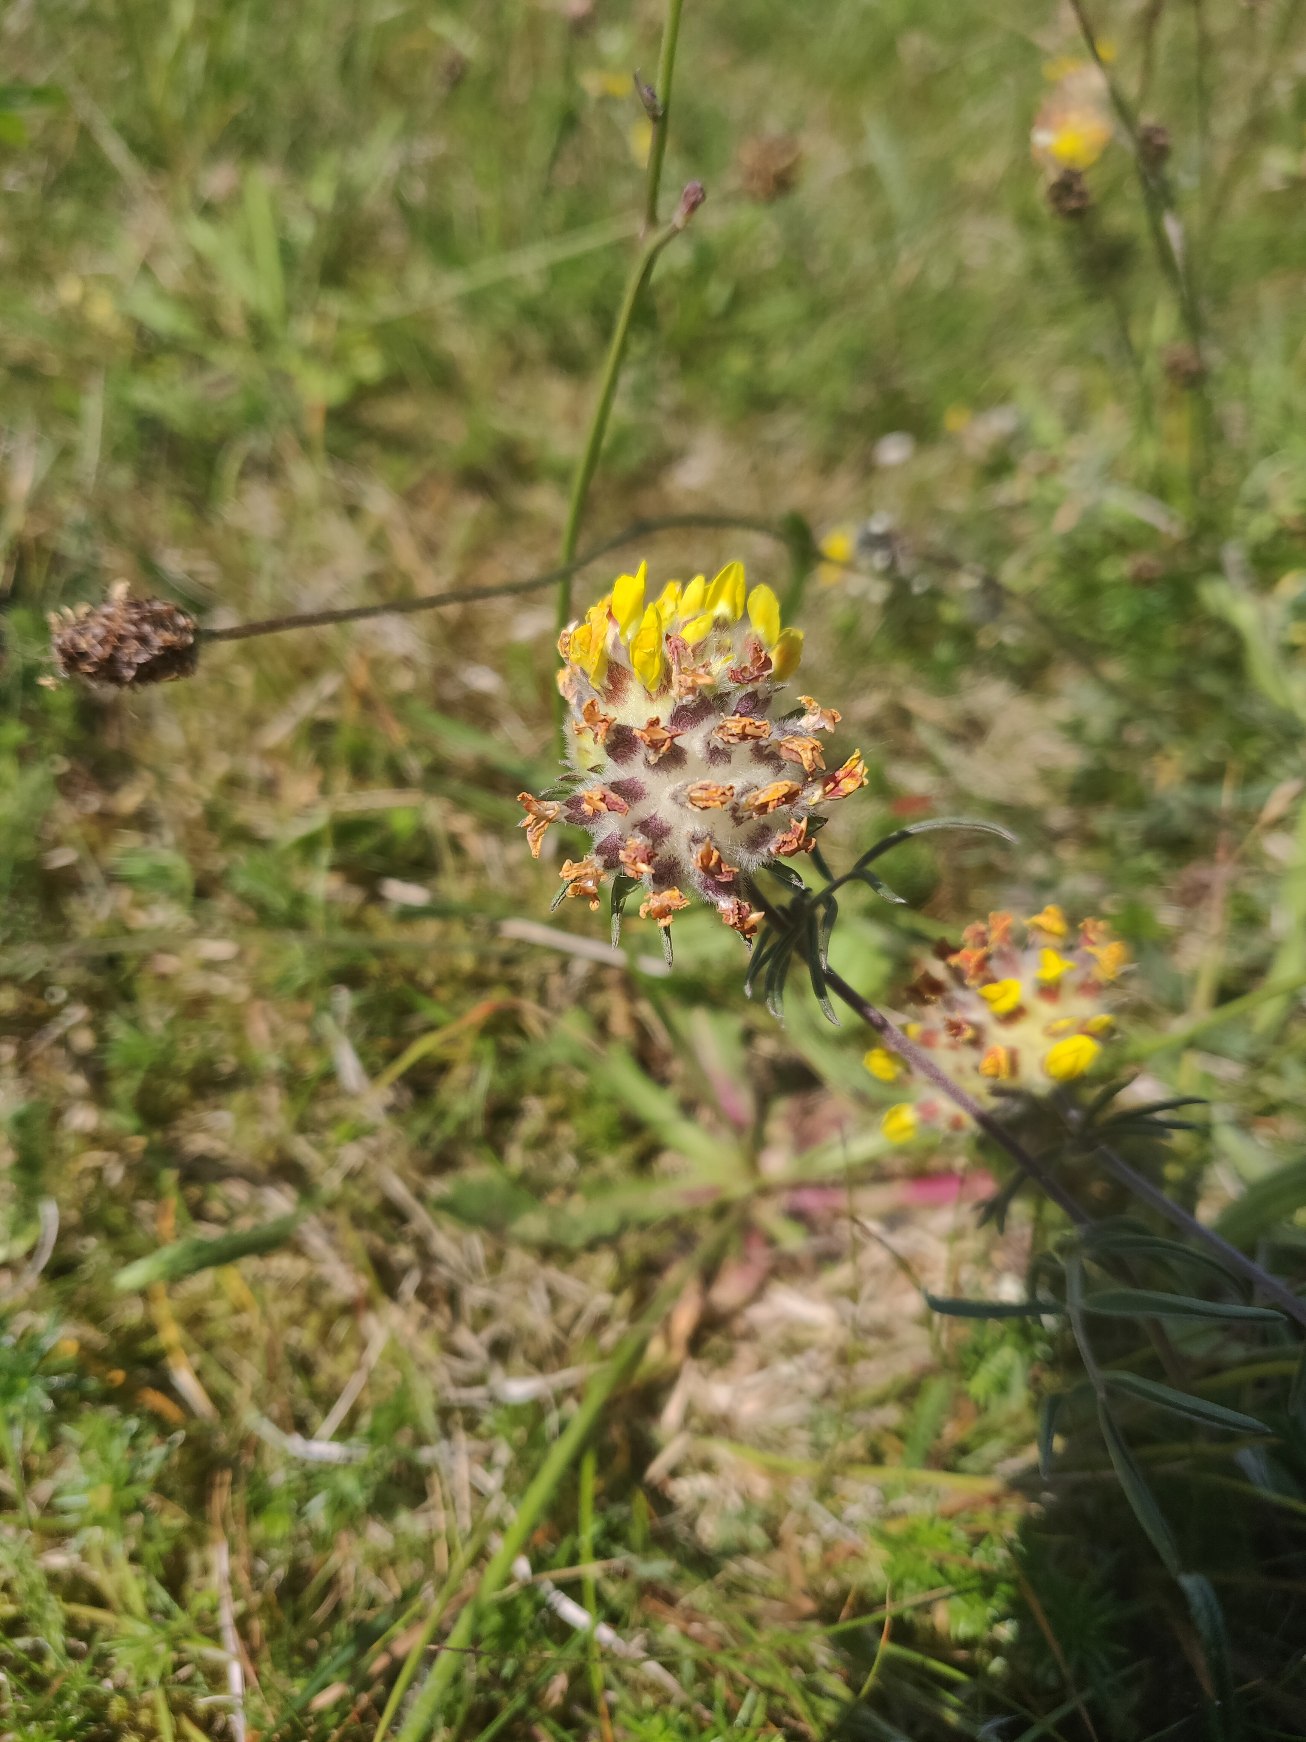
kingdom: Plantae
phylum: Tracheophyta
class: Magnoliopsida
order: Fabales
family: Fabaceae
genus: Anthyllis
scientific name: Anthyllis vulneraria
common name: Rundbælg
